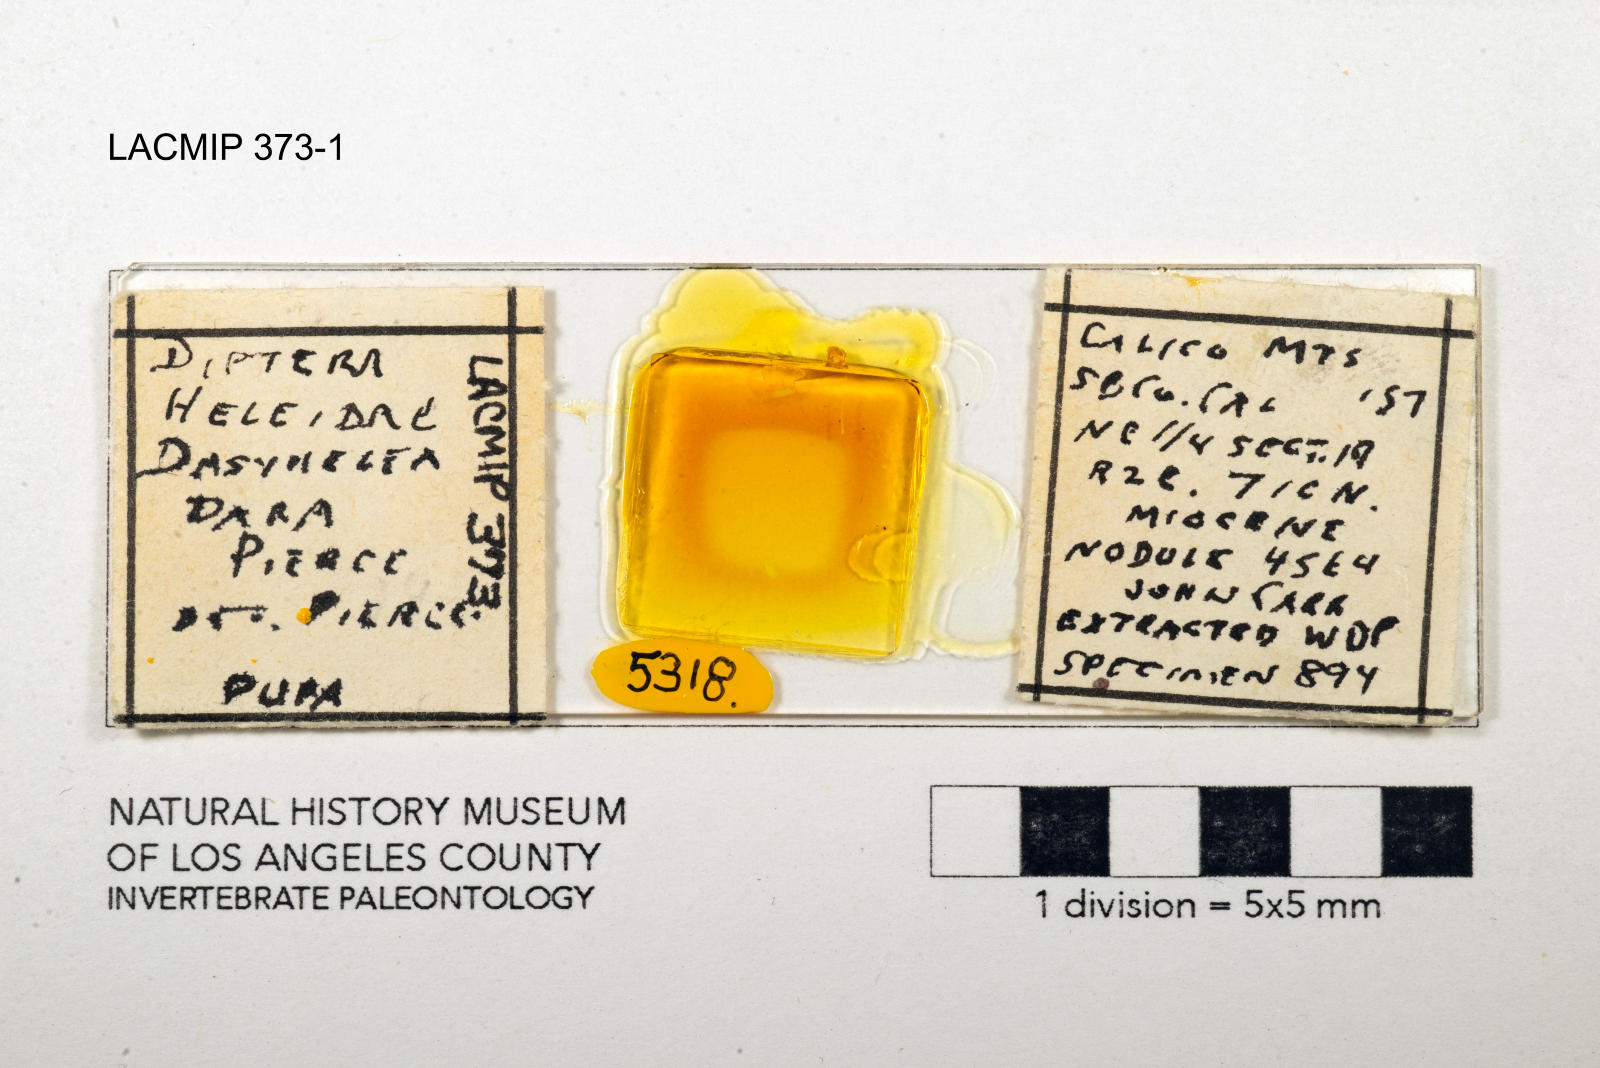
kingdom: Animalia
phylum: Arthropoda
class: Insecta
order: Diptera
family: Ceratopogonidae
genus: Dasyhelea
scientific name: Dasyhelea dara
